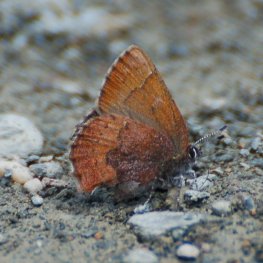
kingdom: Animalia
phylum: Arthropoda
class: Insecta
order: Lepidoptera
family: Lycaenidae
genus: Incisalia
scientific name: Incisalia irioides
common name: Brown Elfin
